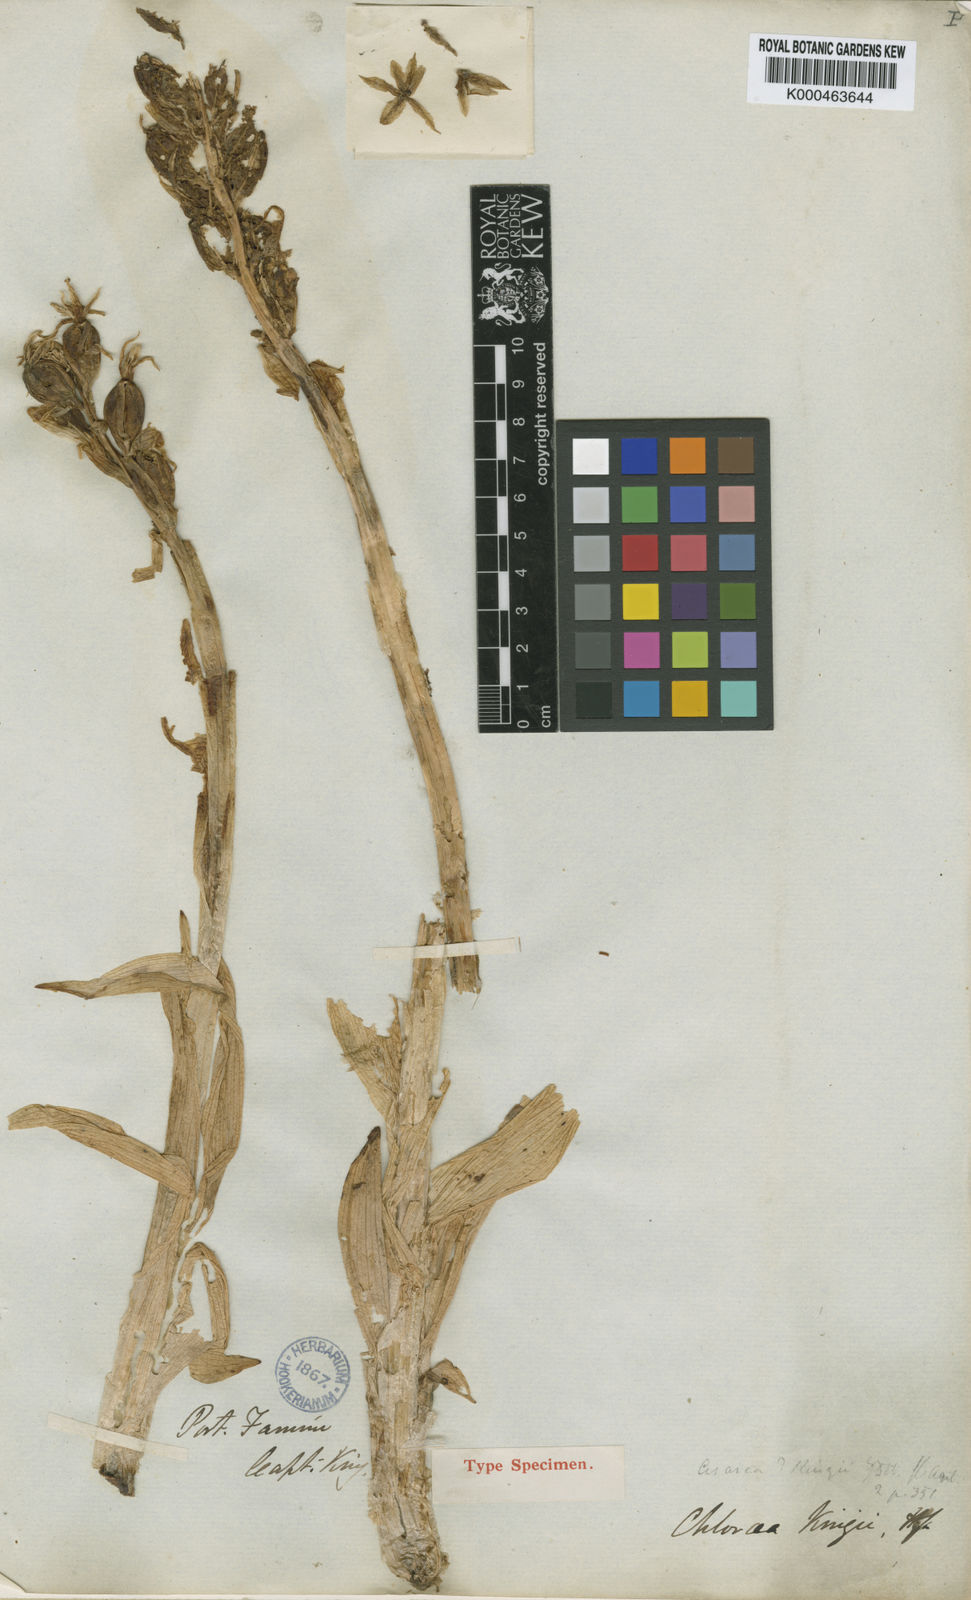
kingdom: Plantae
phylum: Tracheophyta
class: Liliopsida
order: Asparagales
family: Orchidaceae
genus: Gavilea
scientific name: Gavilea kingii
